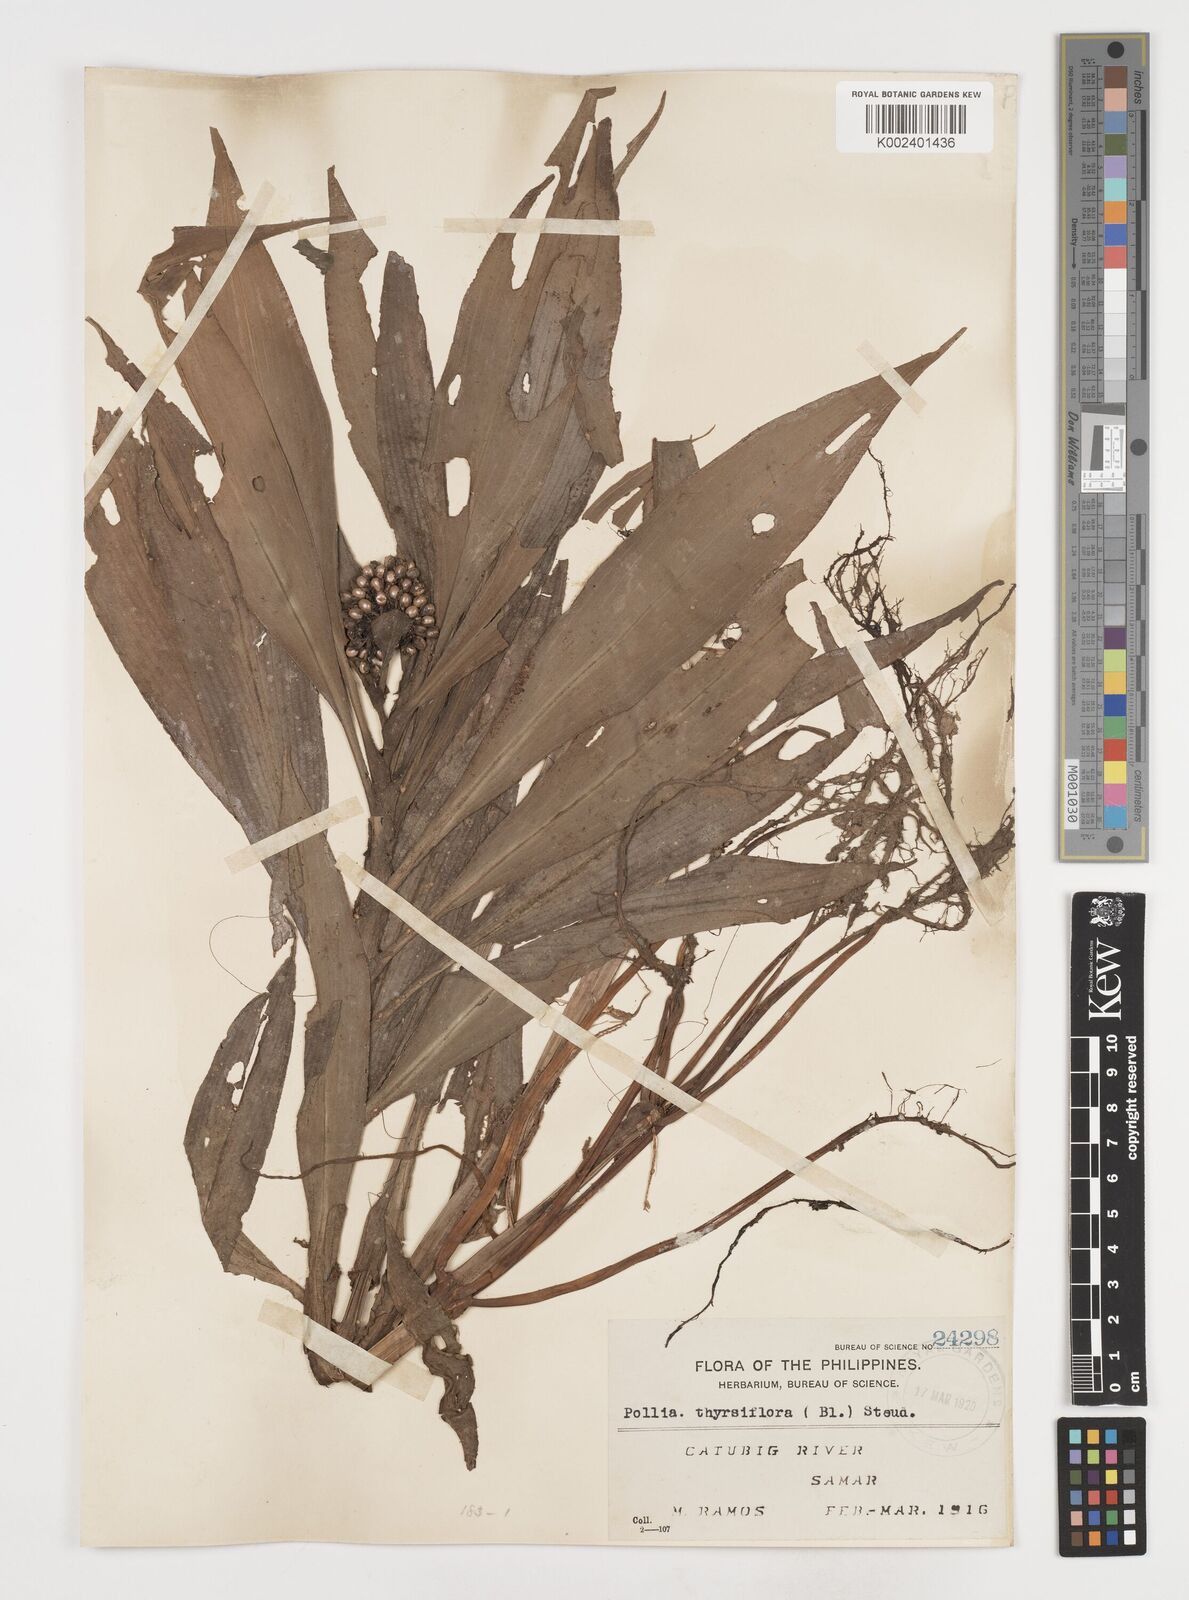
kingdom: Plantae
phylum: Tracheophyta
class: Liliopsida
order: Commelinales
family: Commelinaceae
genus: Pollia
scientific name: Pollia thyrsiflora
